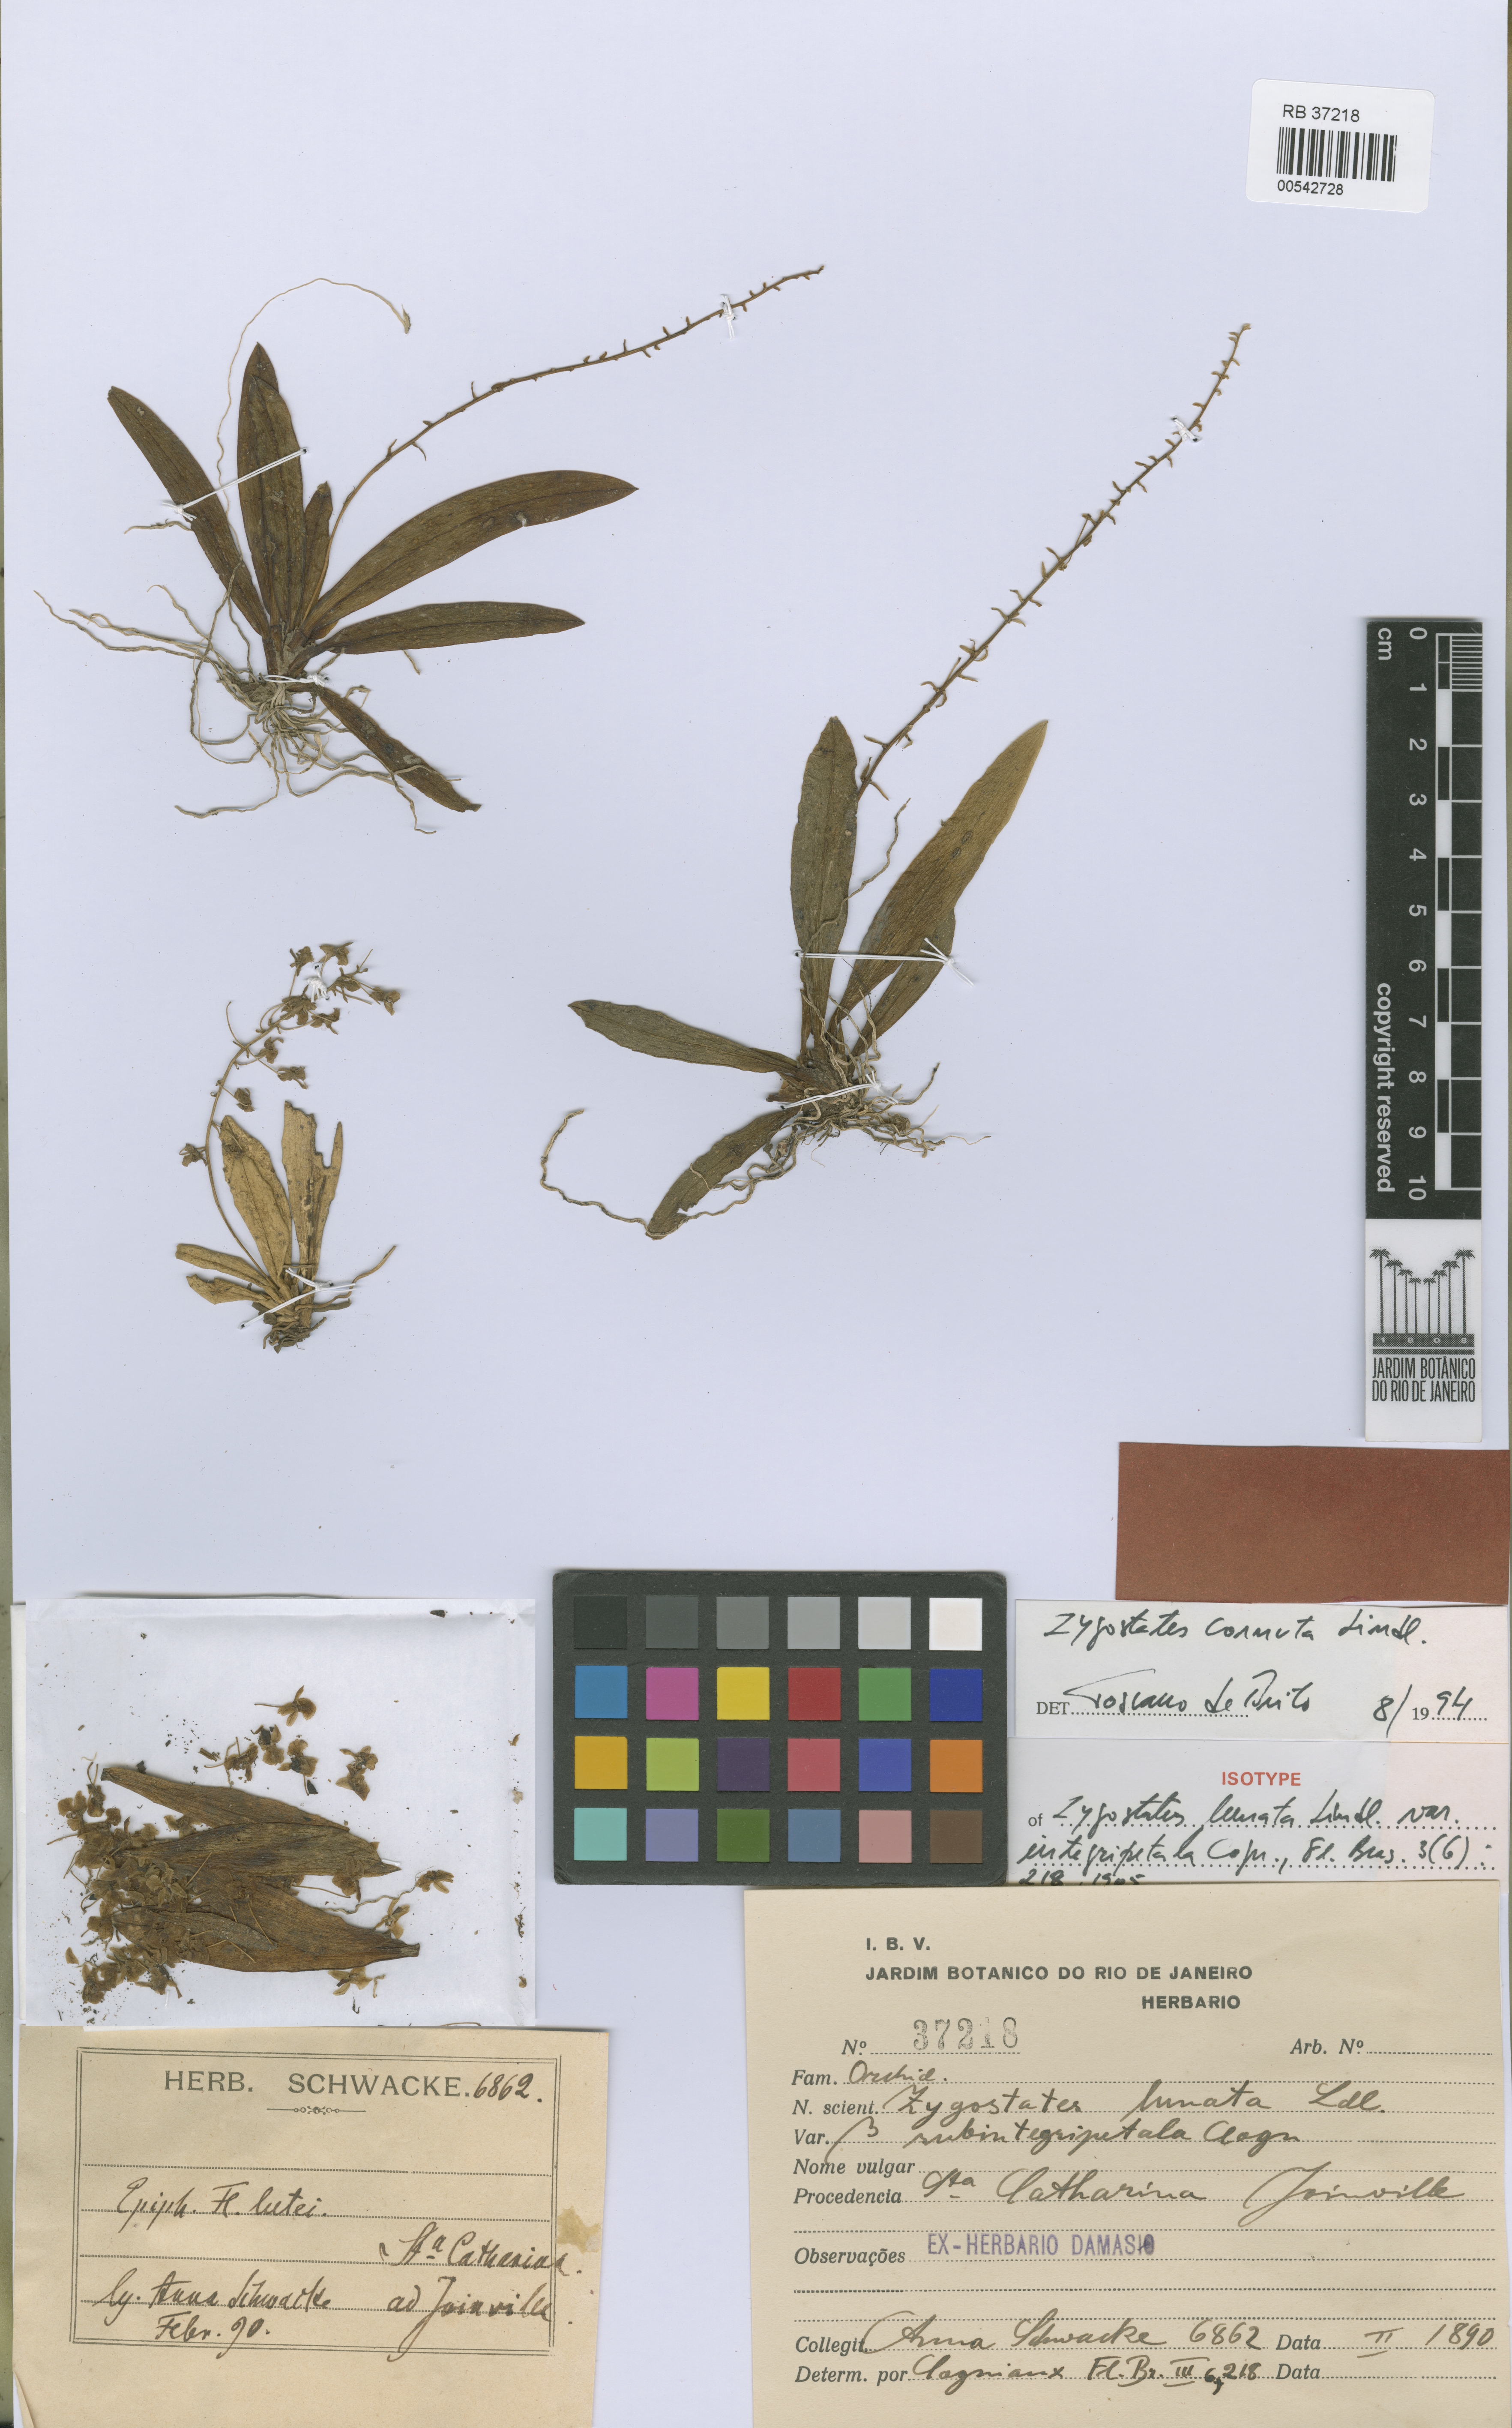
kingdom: Plantae
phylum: Tracheophyta
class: Liliopsida
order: Asparagales
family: Orchidaceae
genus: Zygostates
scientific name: Zygostates cornuta
